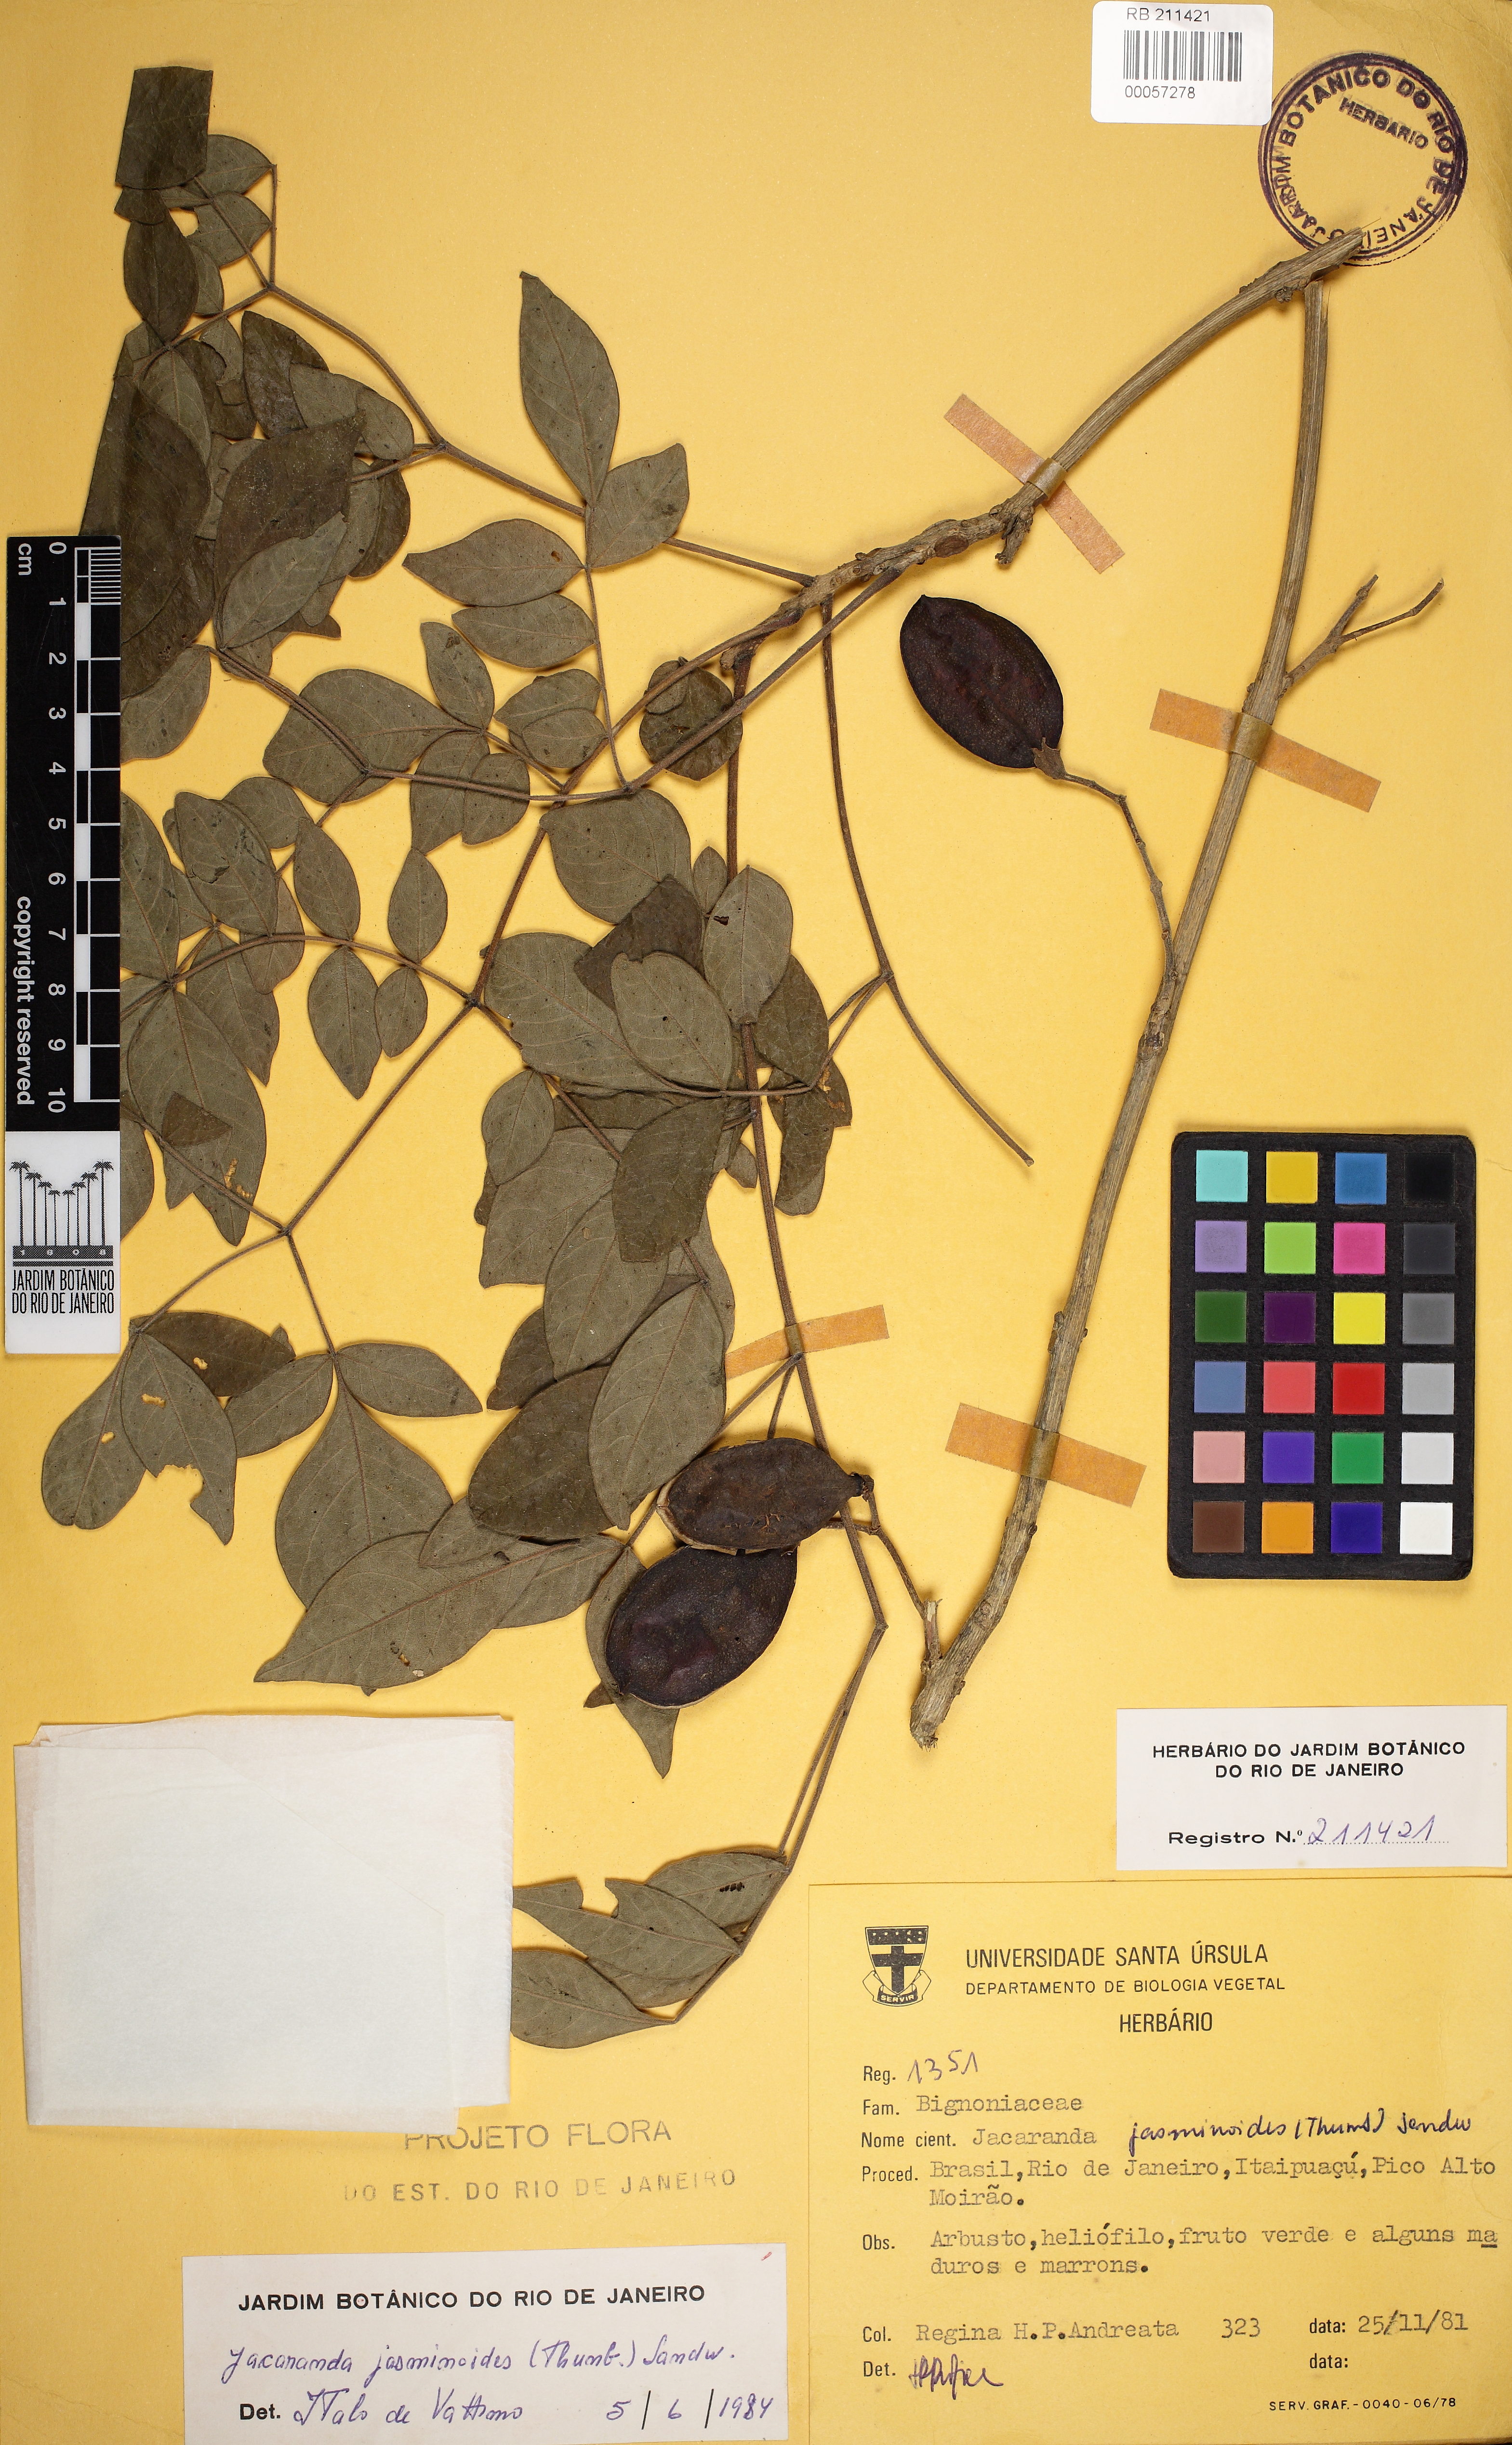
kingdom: Plantae
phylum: Tracheophyta
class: Magnoliopsida
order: Lamiales
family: Bignoniaceae
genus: Jacaranda
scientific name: Jacaranda jasminoides
